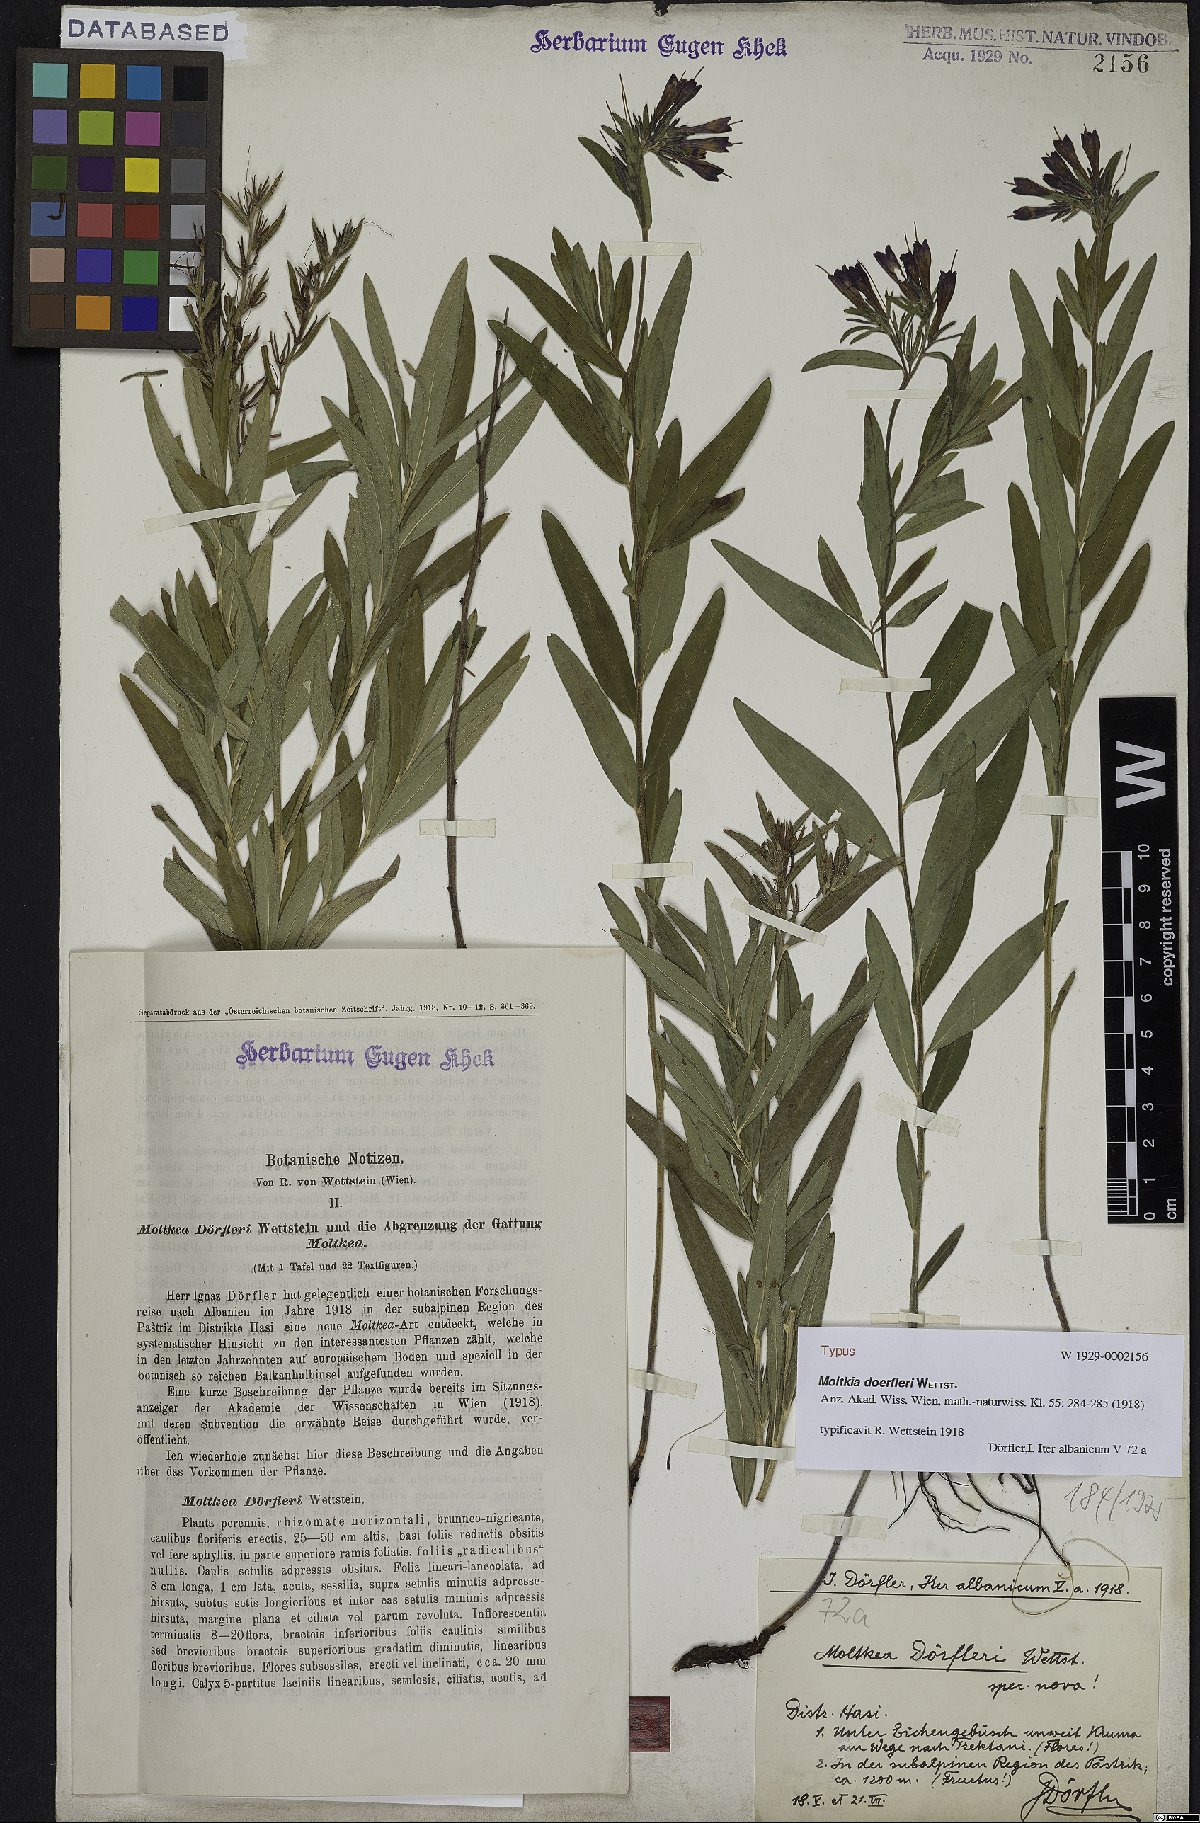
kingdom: Plantae
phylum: Tracheophyta
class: Magnoliopsida
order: Boraginales
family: Boraginaceae
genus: Paramoltkia
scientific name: Paramoltkia doerfleri
